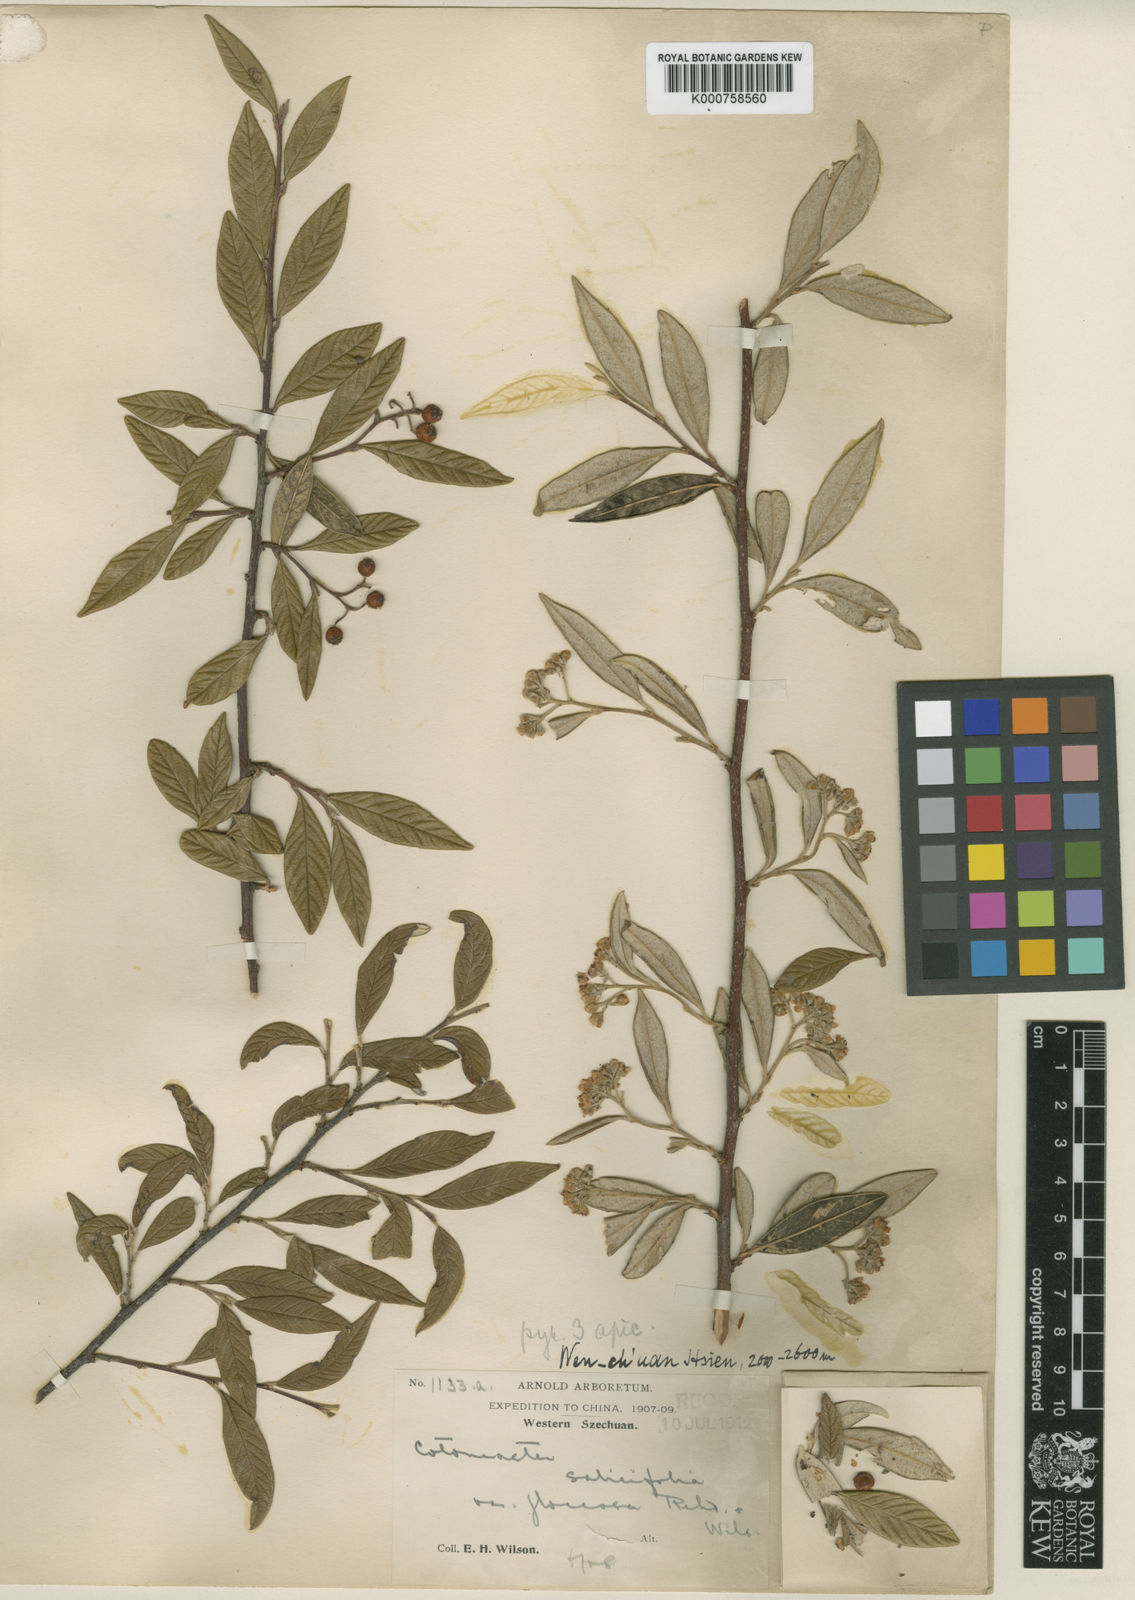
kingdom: Plantae
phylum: Tracheophyta
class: Magnoliopsida
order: Rosales
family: Rosaceae
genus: Cotoneaster
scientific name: Cotoneaster floccosus
